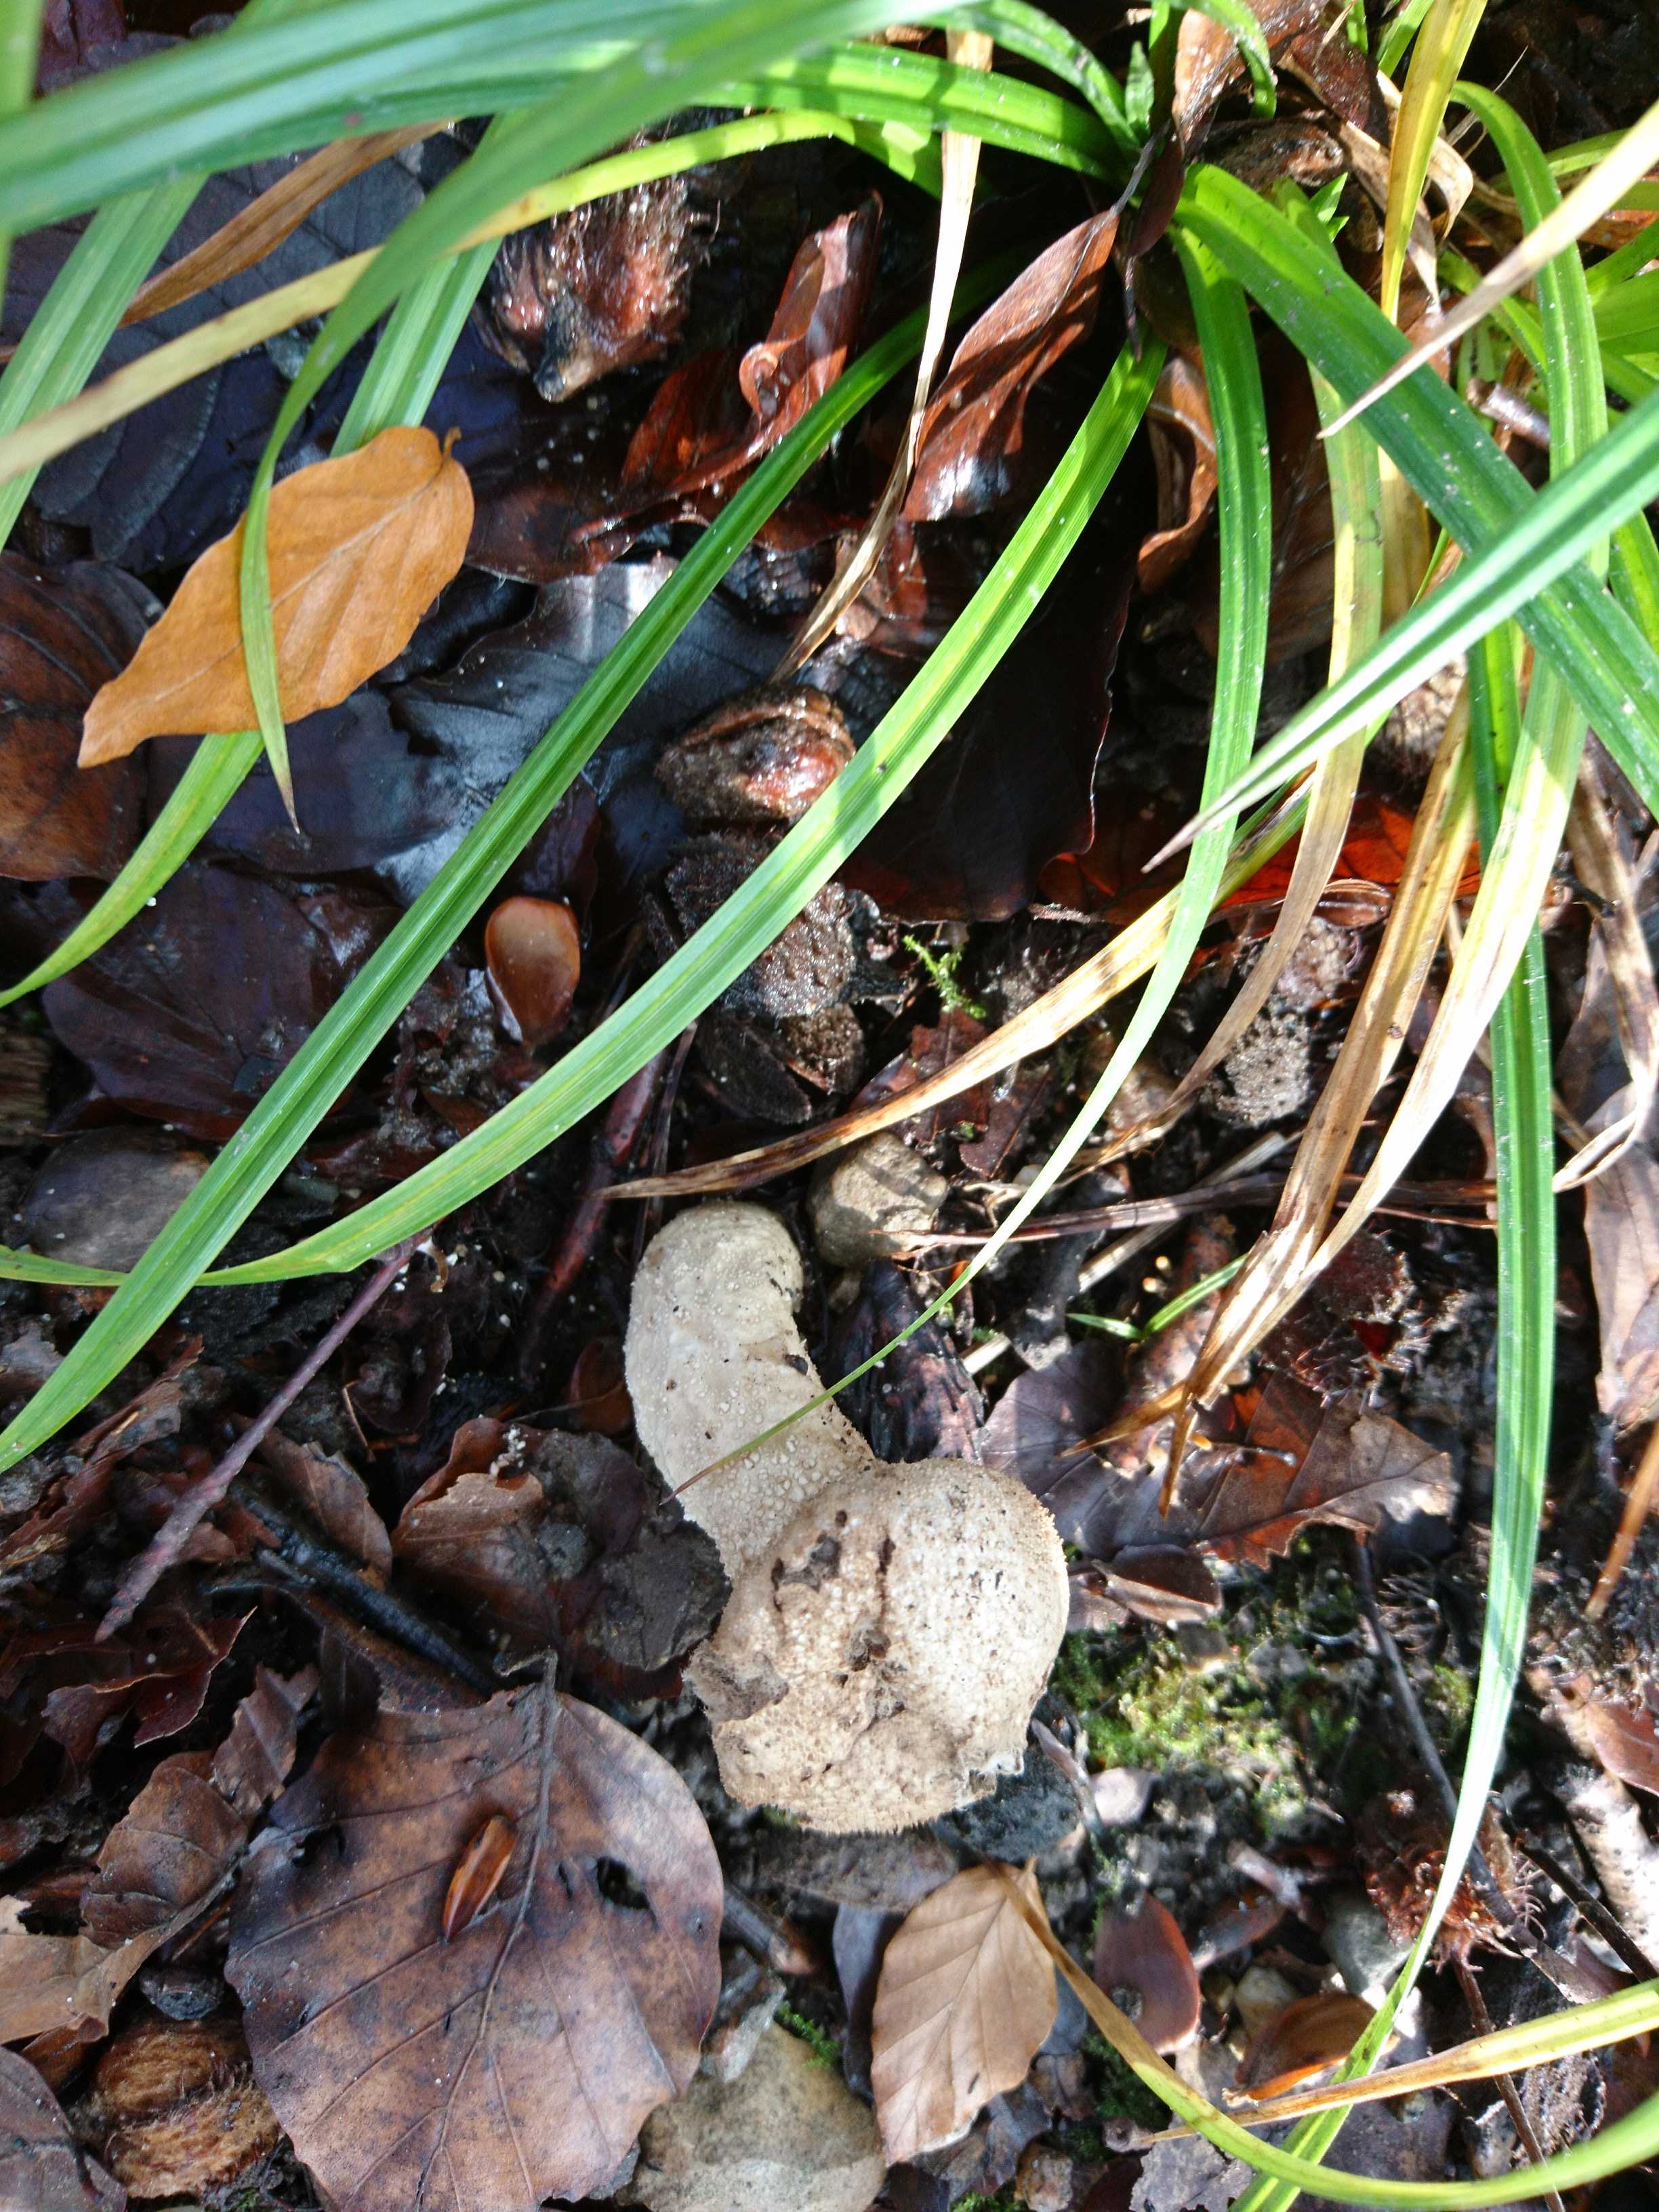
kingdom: Fungi
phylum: Basidiomycota
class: Agaricomycetes
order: Agaricales
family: Lycoperdaceae
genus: Lycoperdon
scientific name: Lycoperdon perlatum
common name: krystal-støvbold
